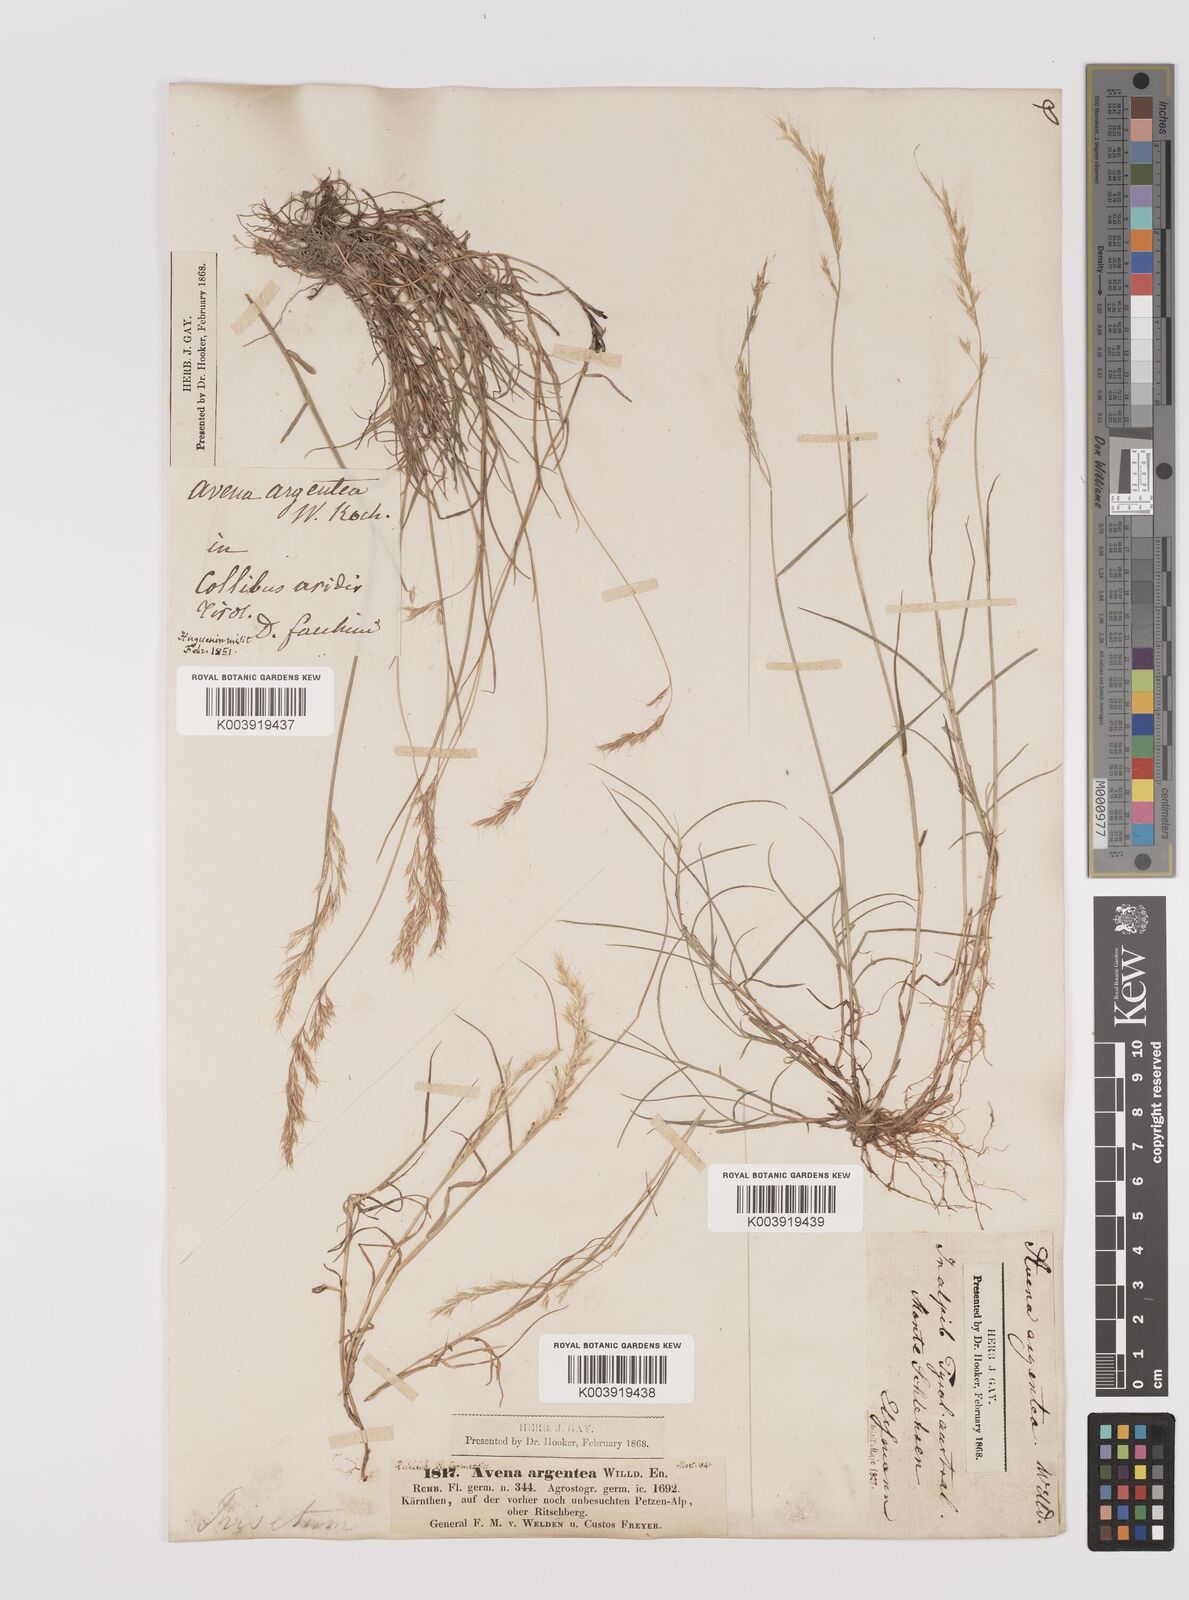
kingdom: Plantae
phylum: Tracheophyta
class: Liliopsida
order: Poales
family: Poaceae
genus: Trisetum
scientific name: Trisetum argenteum
